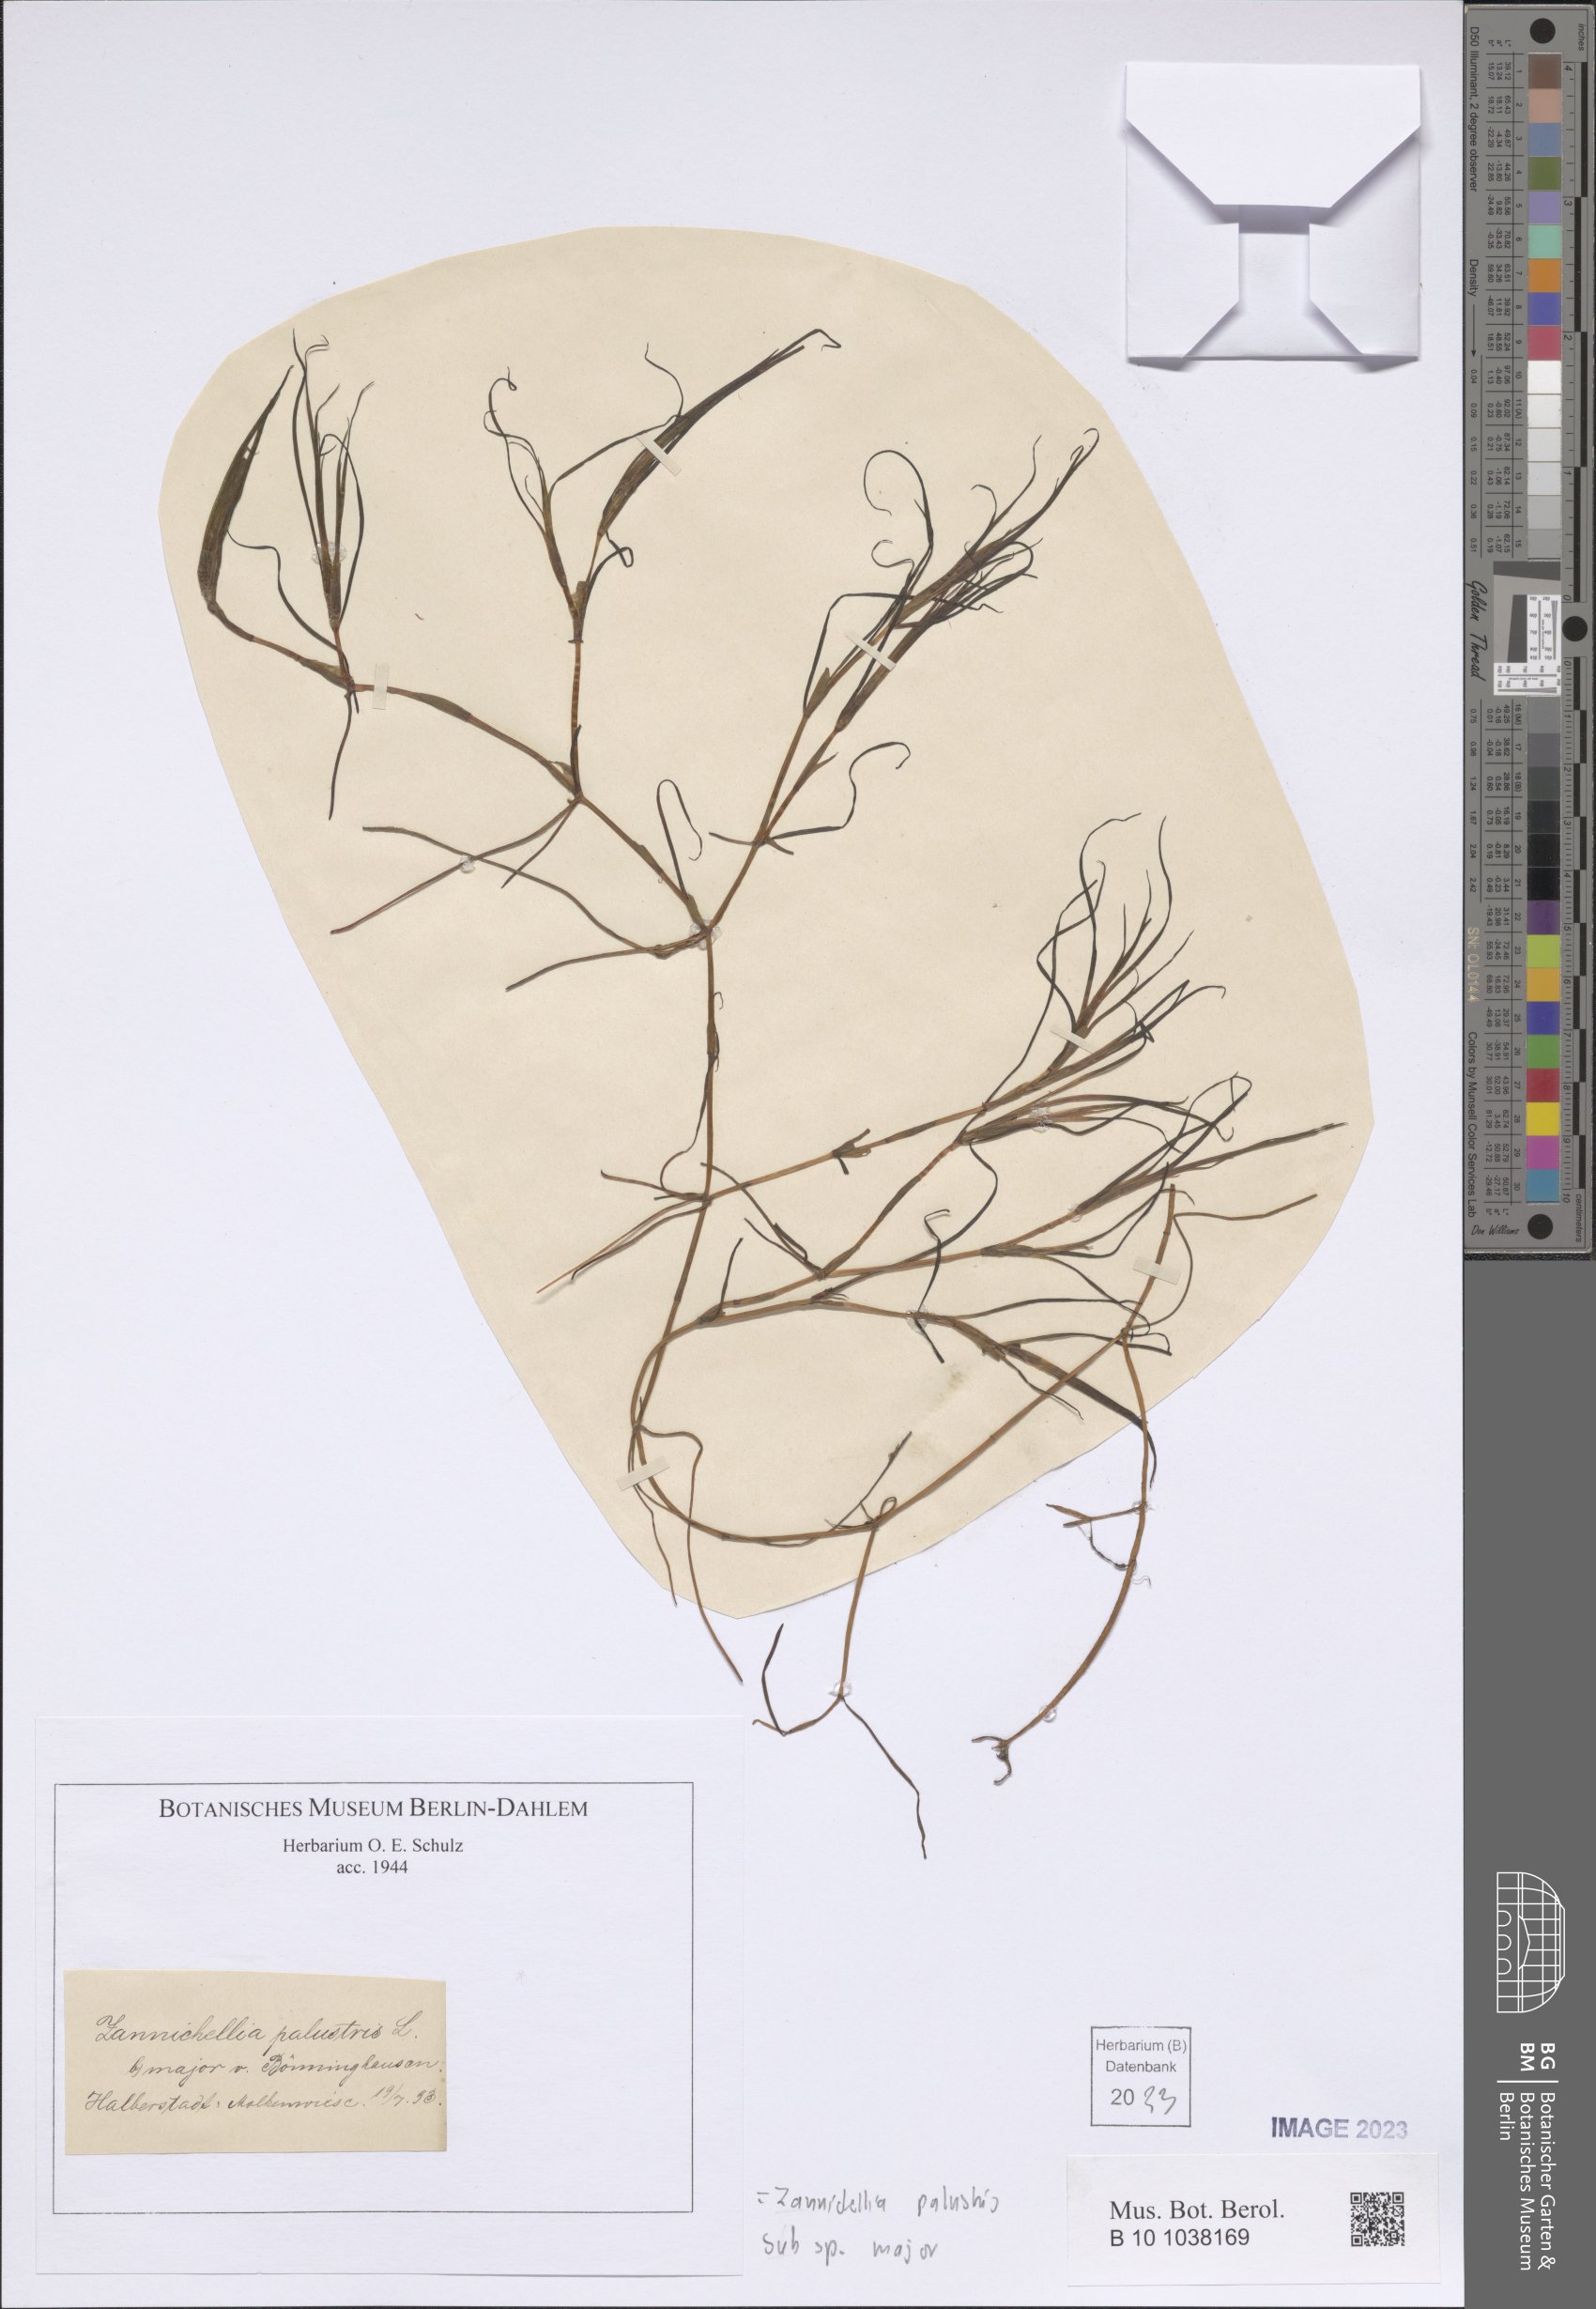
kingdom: Plantae
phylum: Tracheophyta
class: Liliopsida
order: Alismatales
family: Potamogetonaceae
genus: Zannichellia
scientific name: Zannichellia palustris
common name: Horned pondweed
